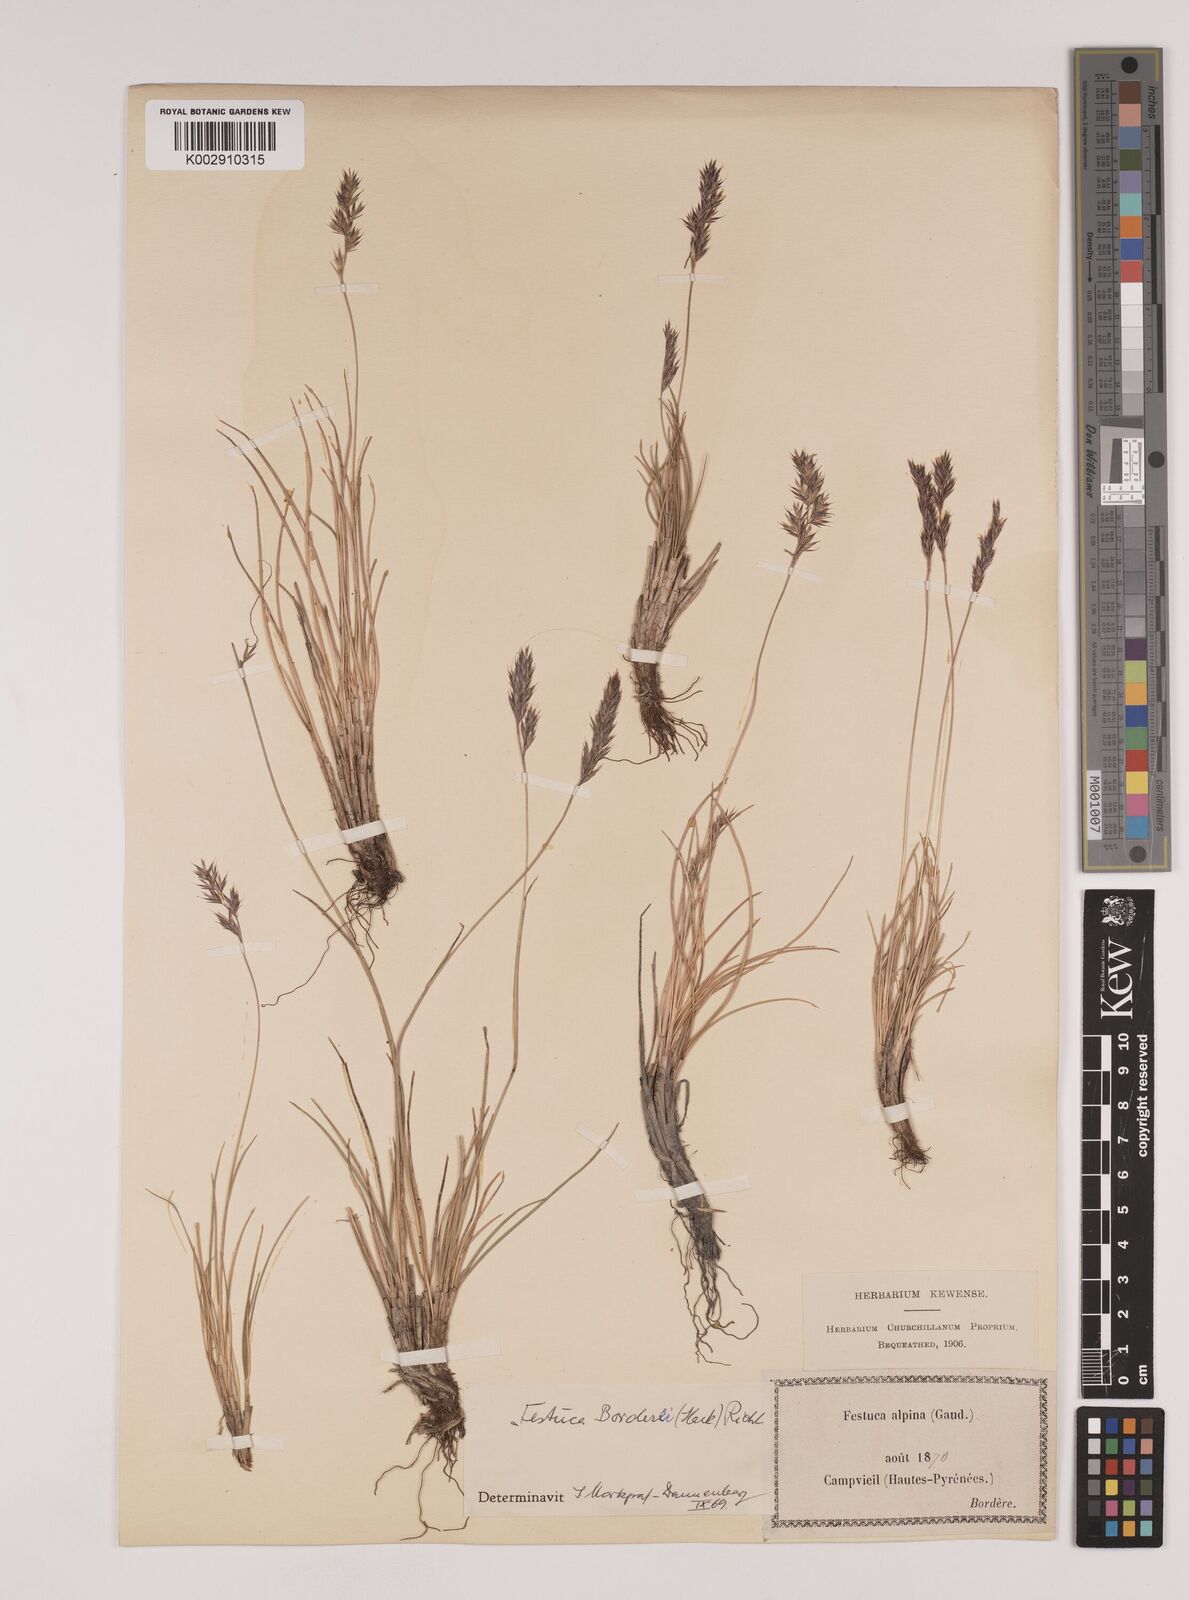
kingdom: Plantae
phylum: Tracheophyta
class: Liliopsida
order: Poales
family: Poaceae
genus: Festuca
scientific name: Festuca borderei
